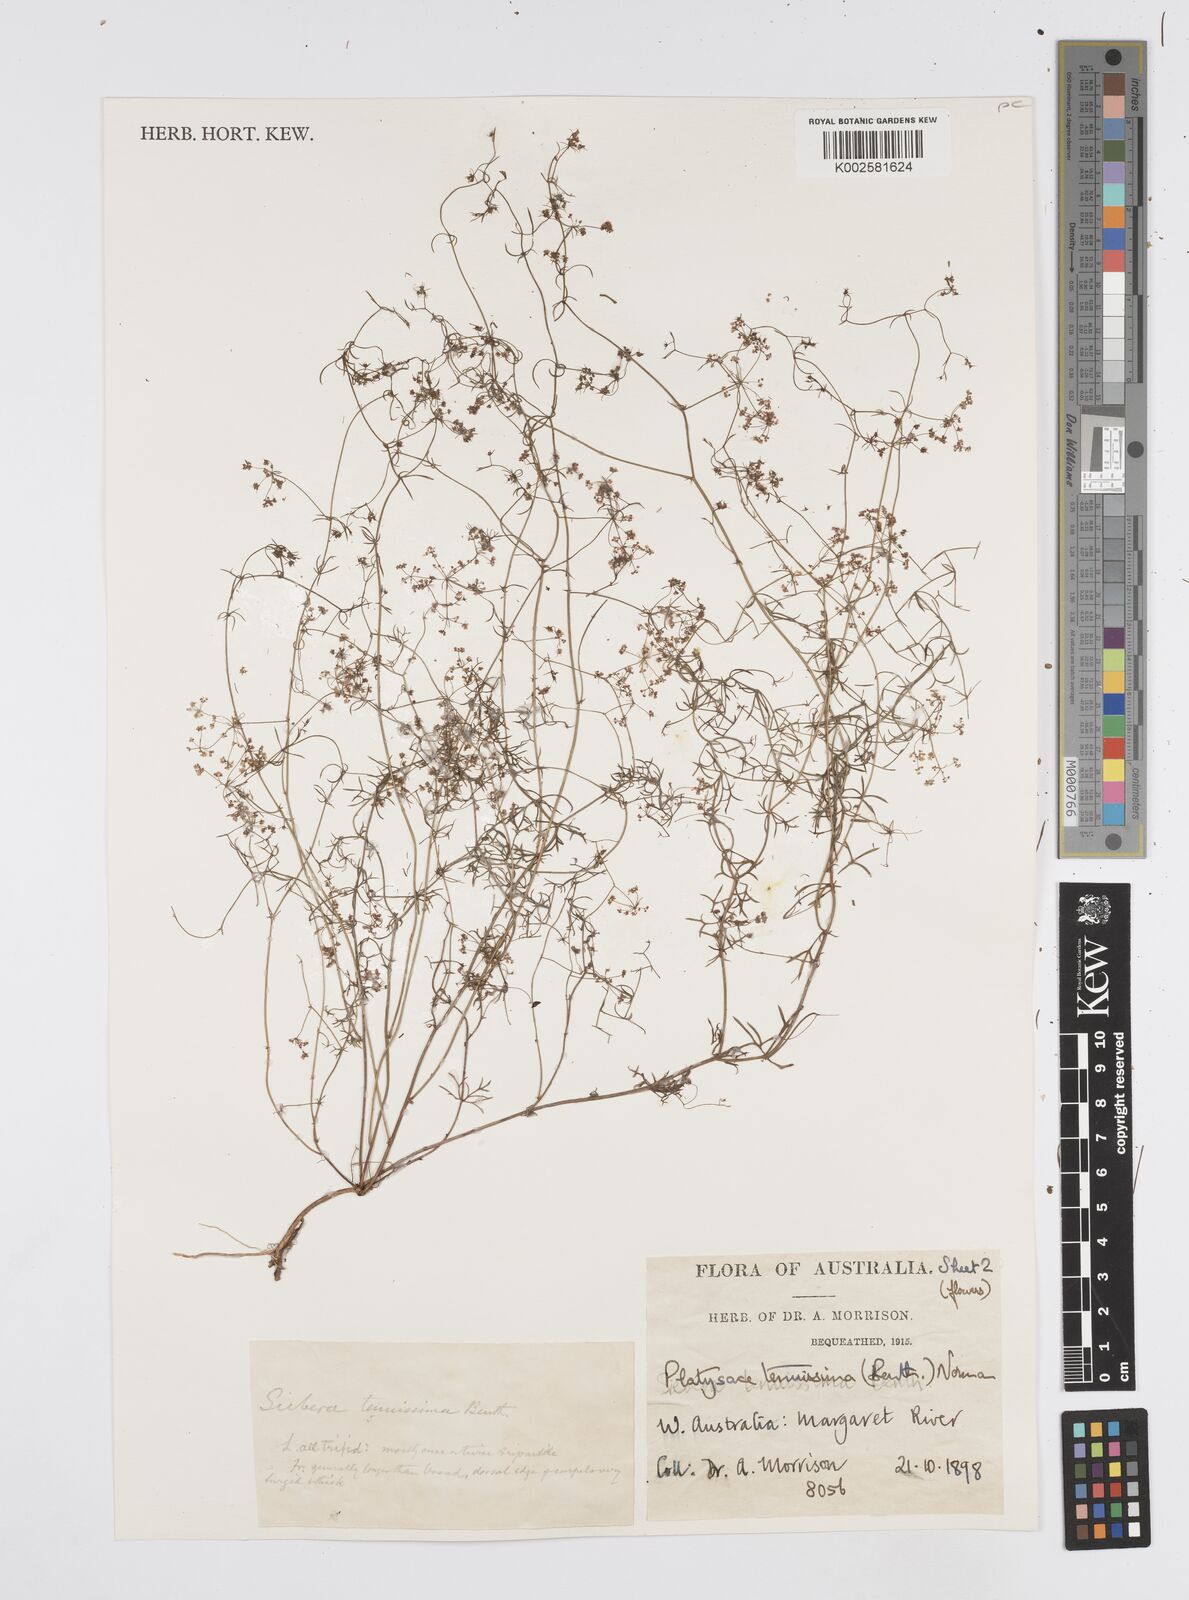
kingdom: Plantae
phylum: Tracheophyta
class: Magnoliopsida
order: Apiales
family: Apiaceae
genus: Platysace
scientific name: Platysace tenuissima
